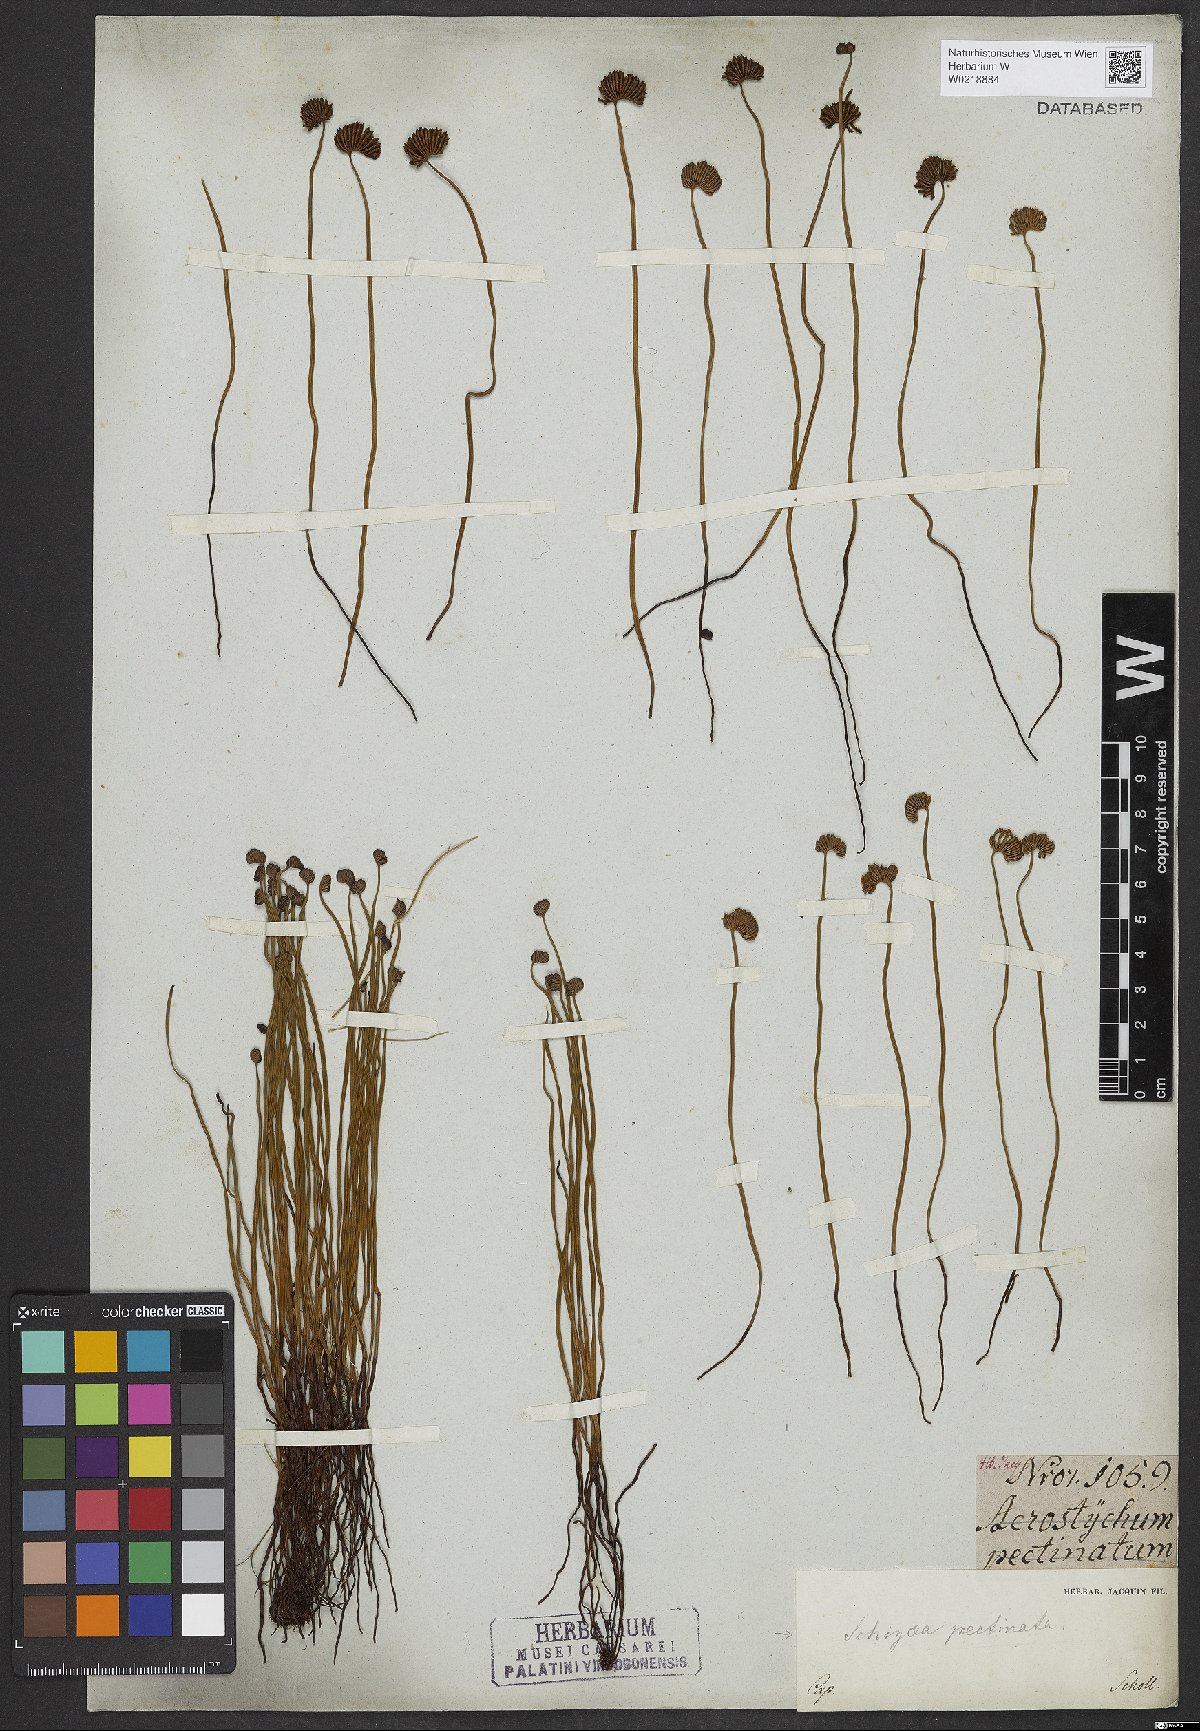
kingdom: Plantae
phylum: Tracheophyta
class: Polypodiopsida
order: Schizaeales
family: Schizaeaceae
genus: Schizaea
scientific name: Schizaea pectinata
